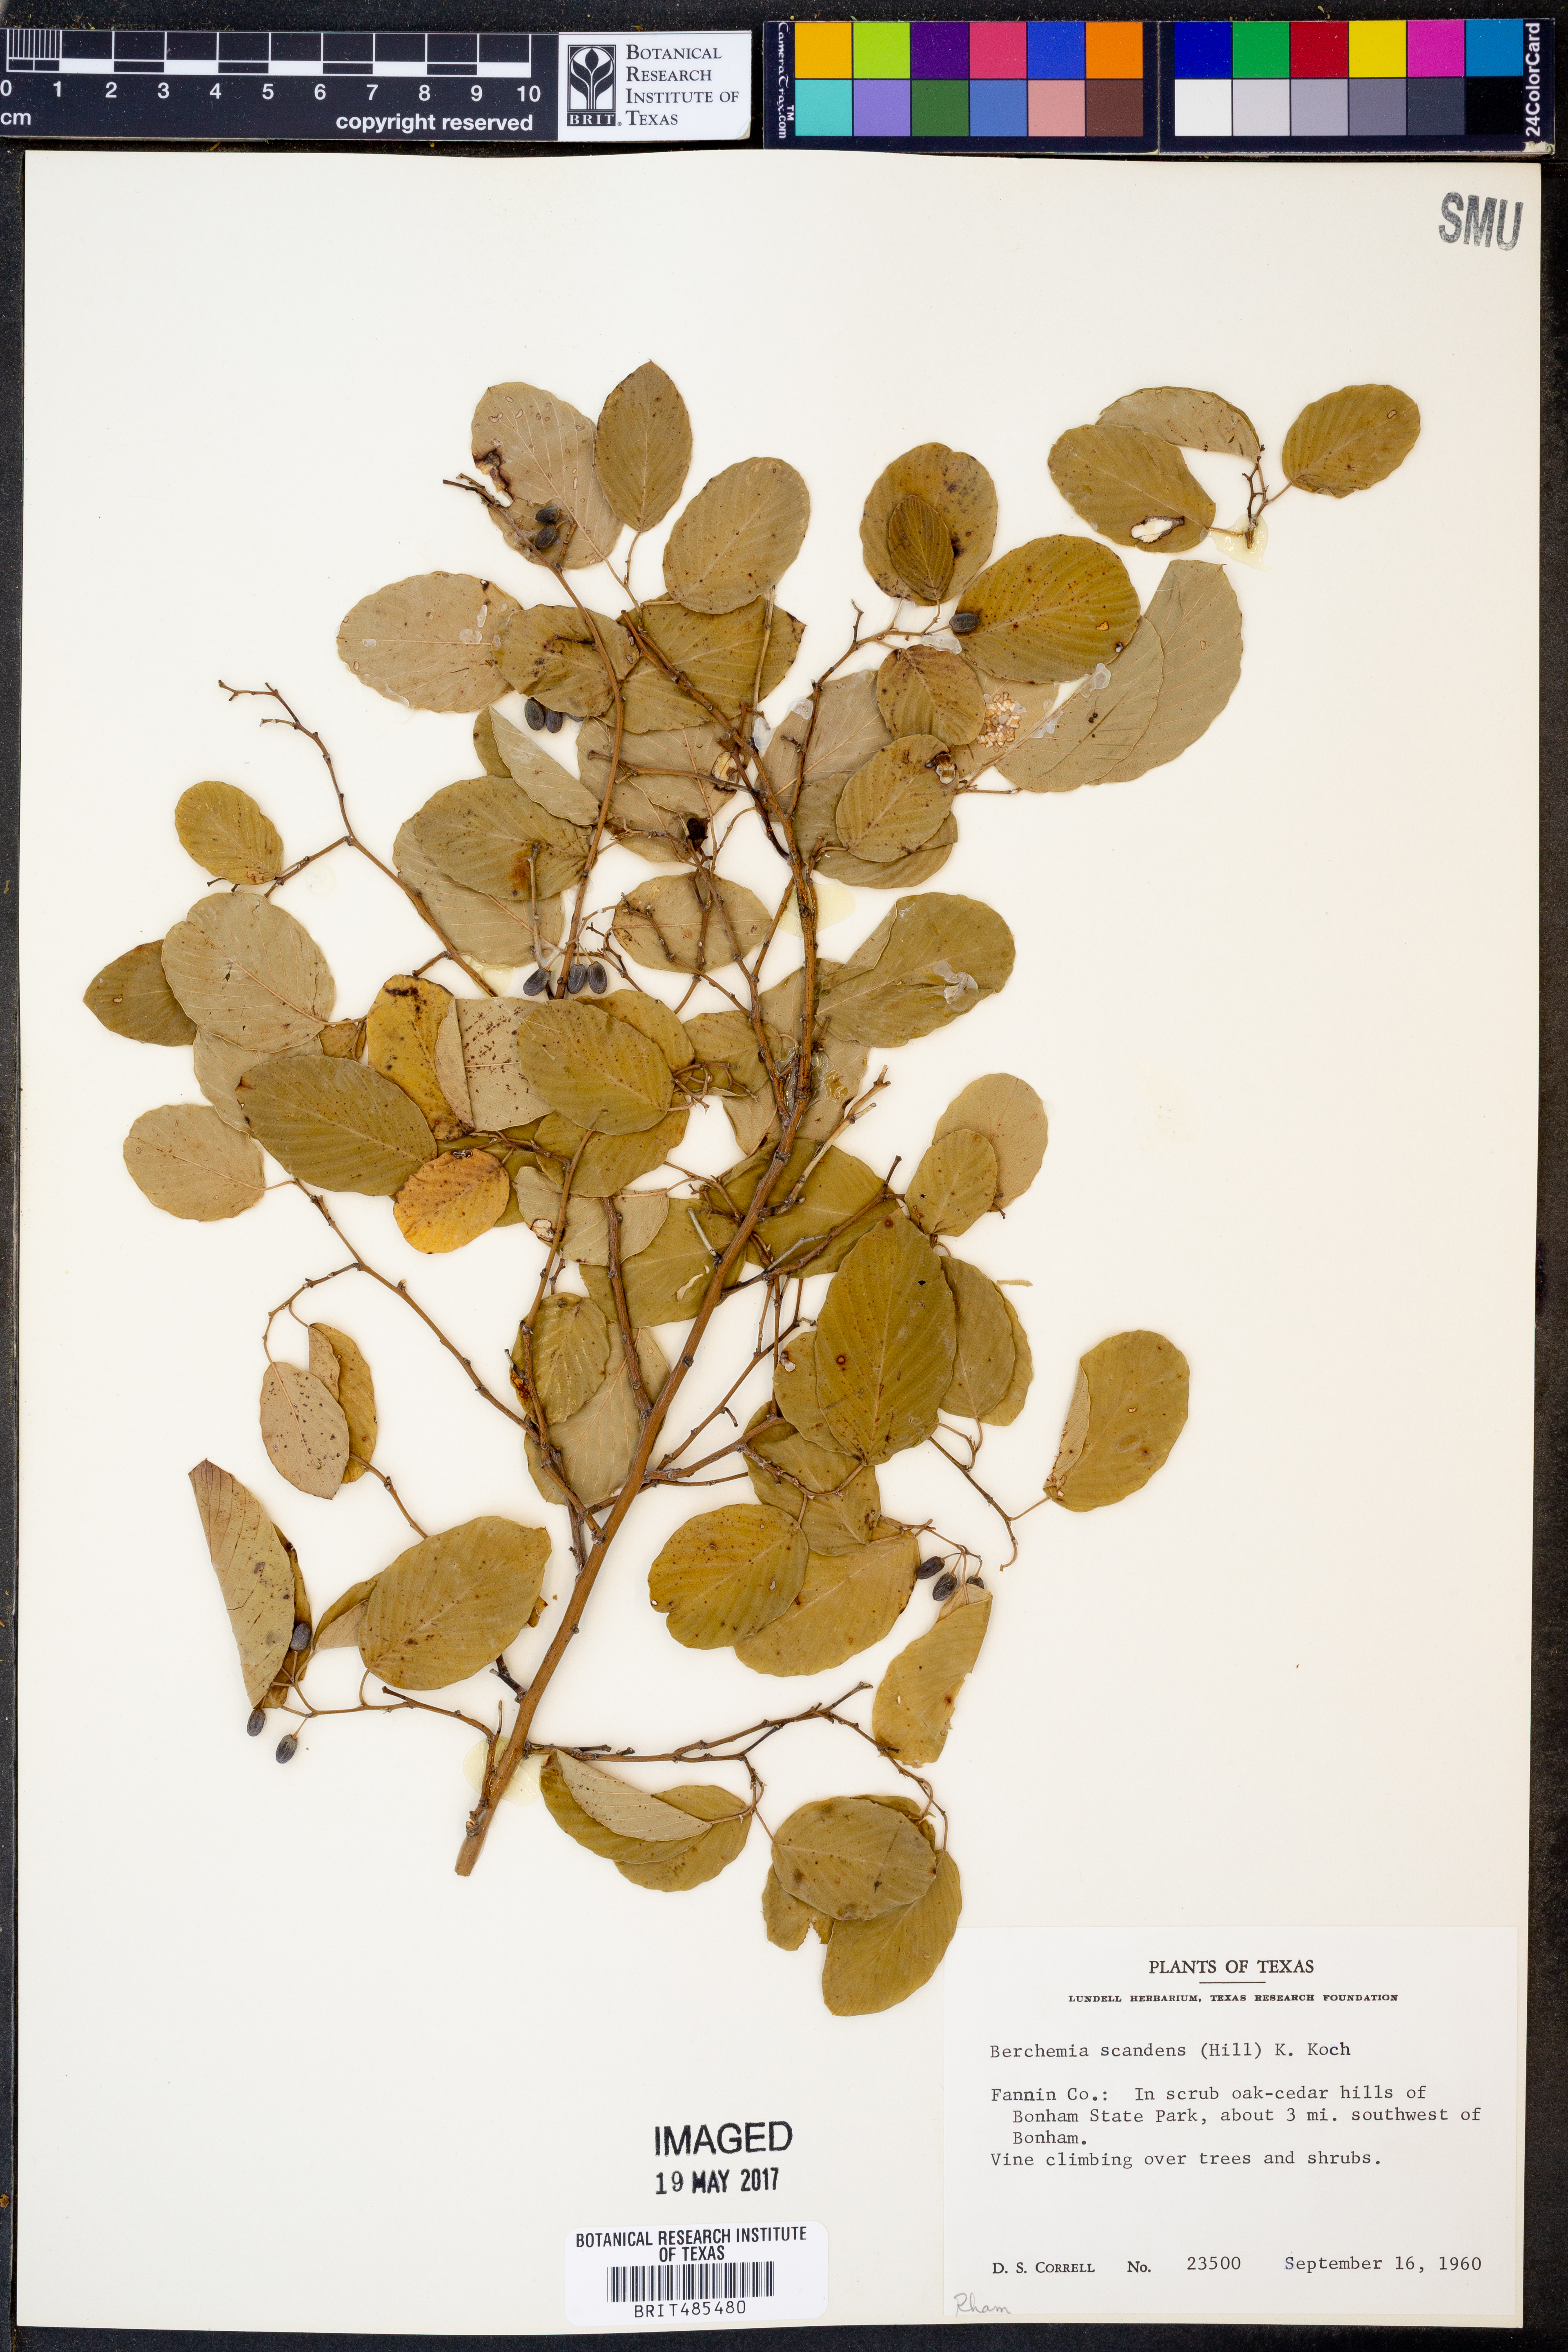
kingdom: Plantae
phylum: Tracheophyta
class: Magnoliopsida
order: Rosales
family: Rhamnaceae
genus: Berchemia
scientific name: Berchemia scandens
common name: Supplejack
